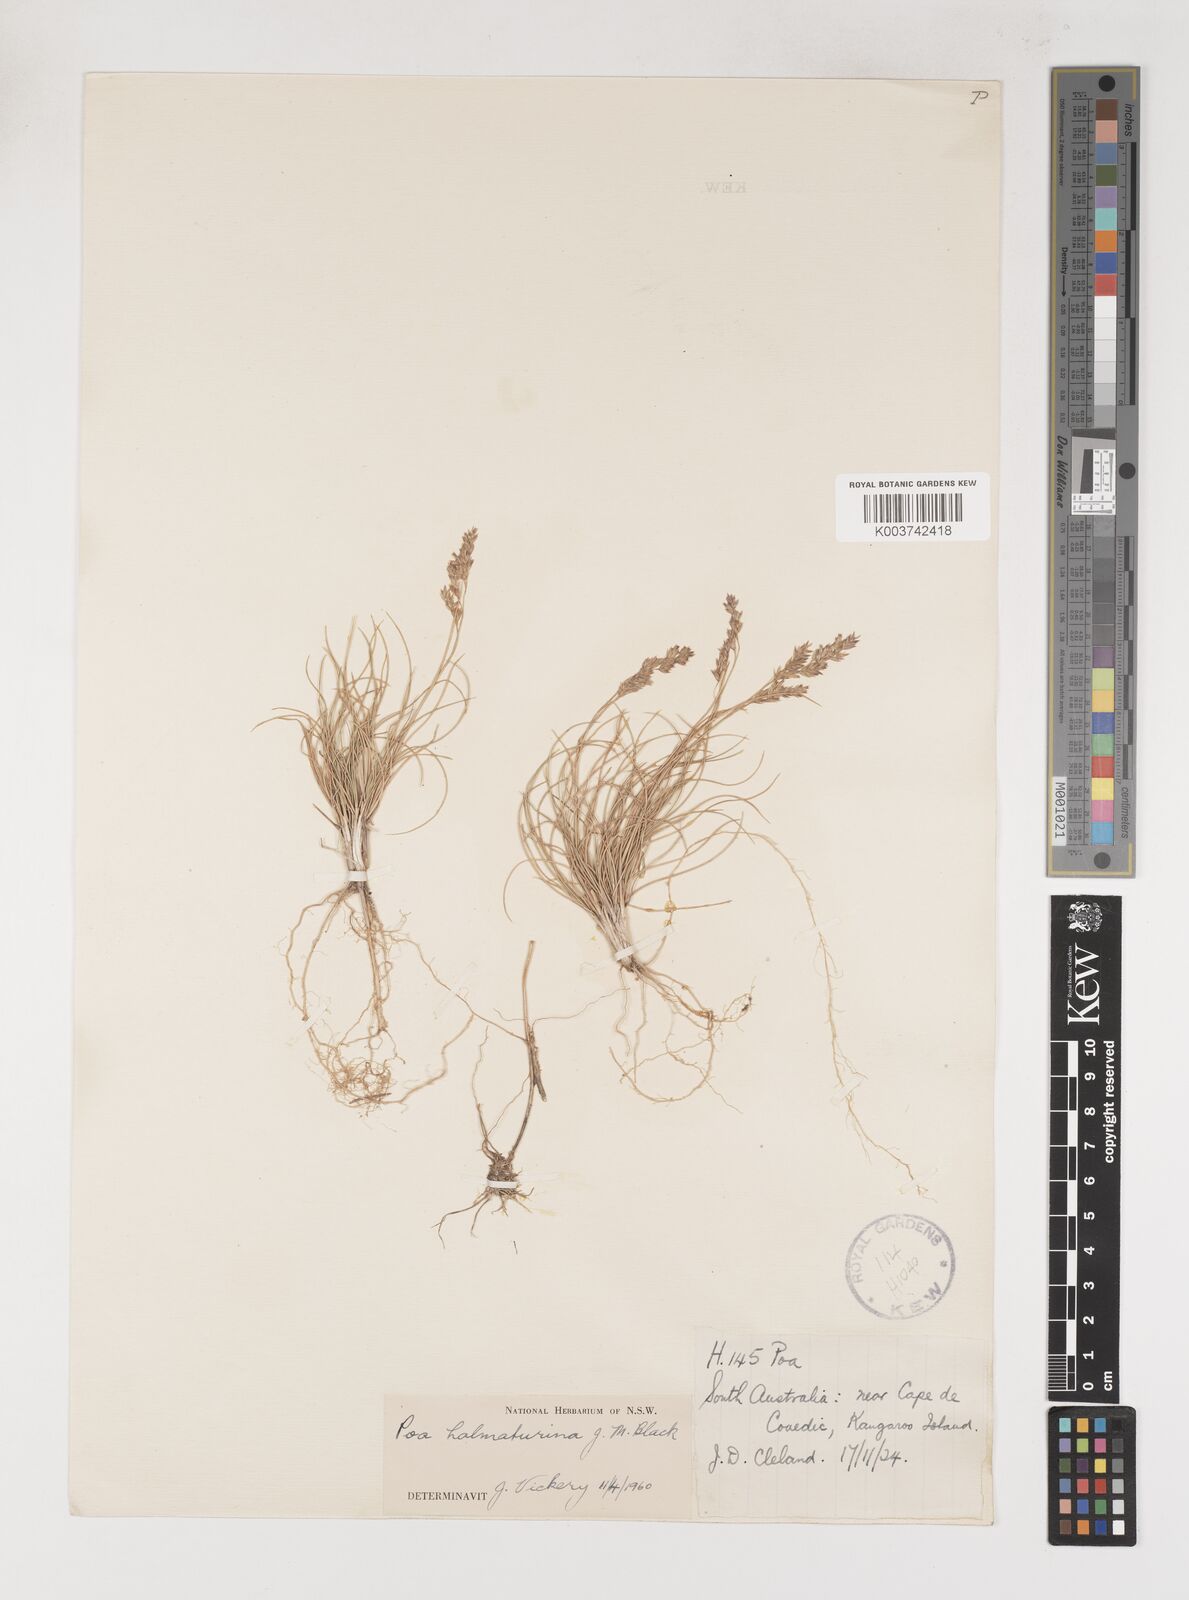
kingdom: Plantae
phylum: Tracheophyta
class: Liliopsida
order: Poales
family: Poaceae
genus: Poa
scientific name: Poa halmaturina
